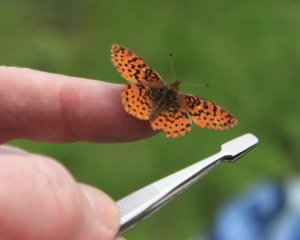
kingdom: Animalia
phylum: Arthropoda
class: Insecta
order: Lepidoptera
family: Nymphalidae
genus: Clossiana
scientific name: Clossiana toddi
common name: Meadow Fritillary
